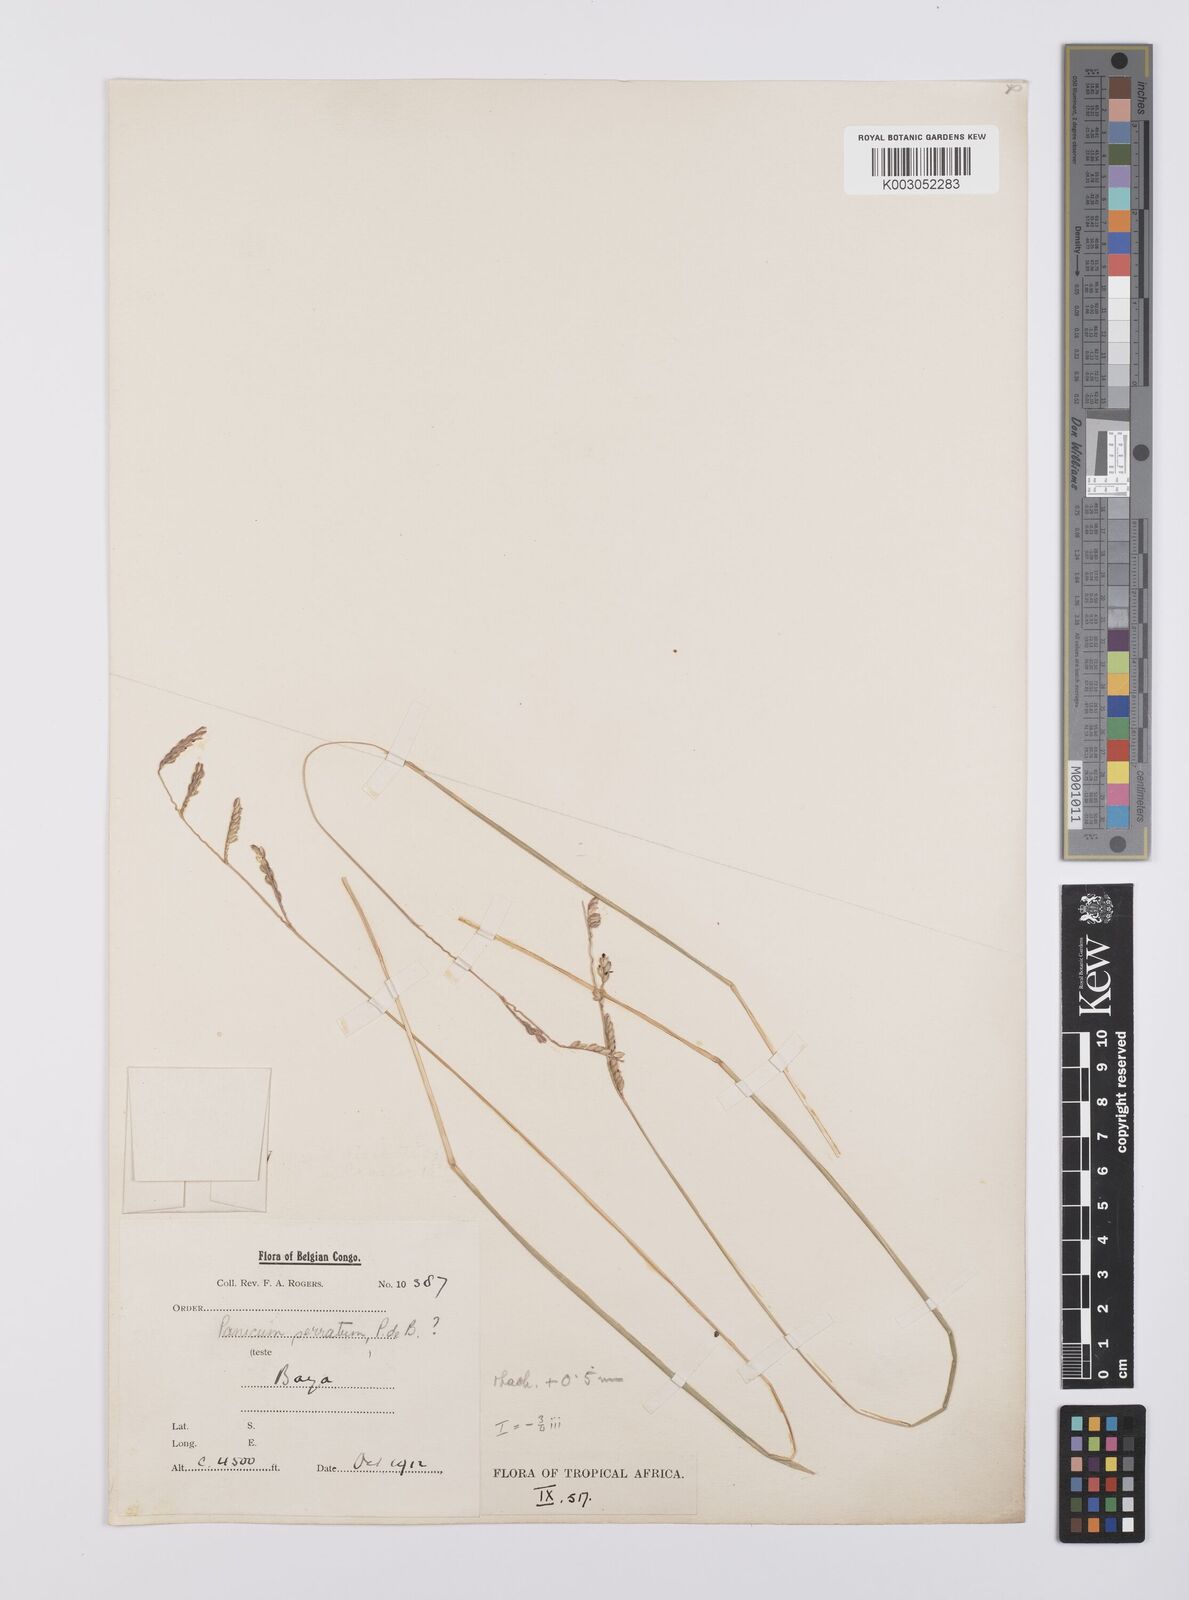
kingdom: Plantae
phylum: Tracheophyta
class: Liliopsida
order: Poales
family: Poaceae
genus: Urochloa
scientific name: Urochloa subulifolia
